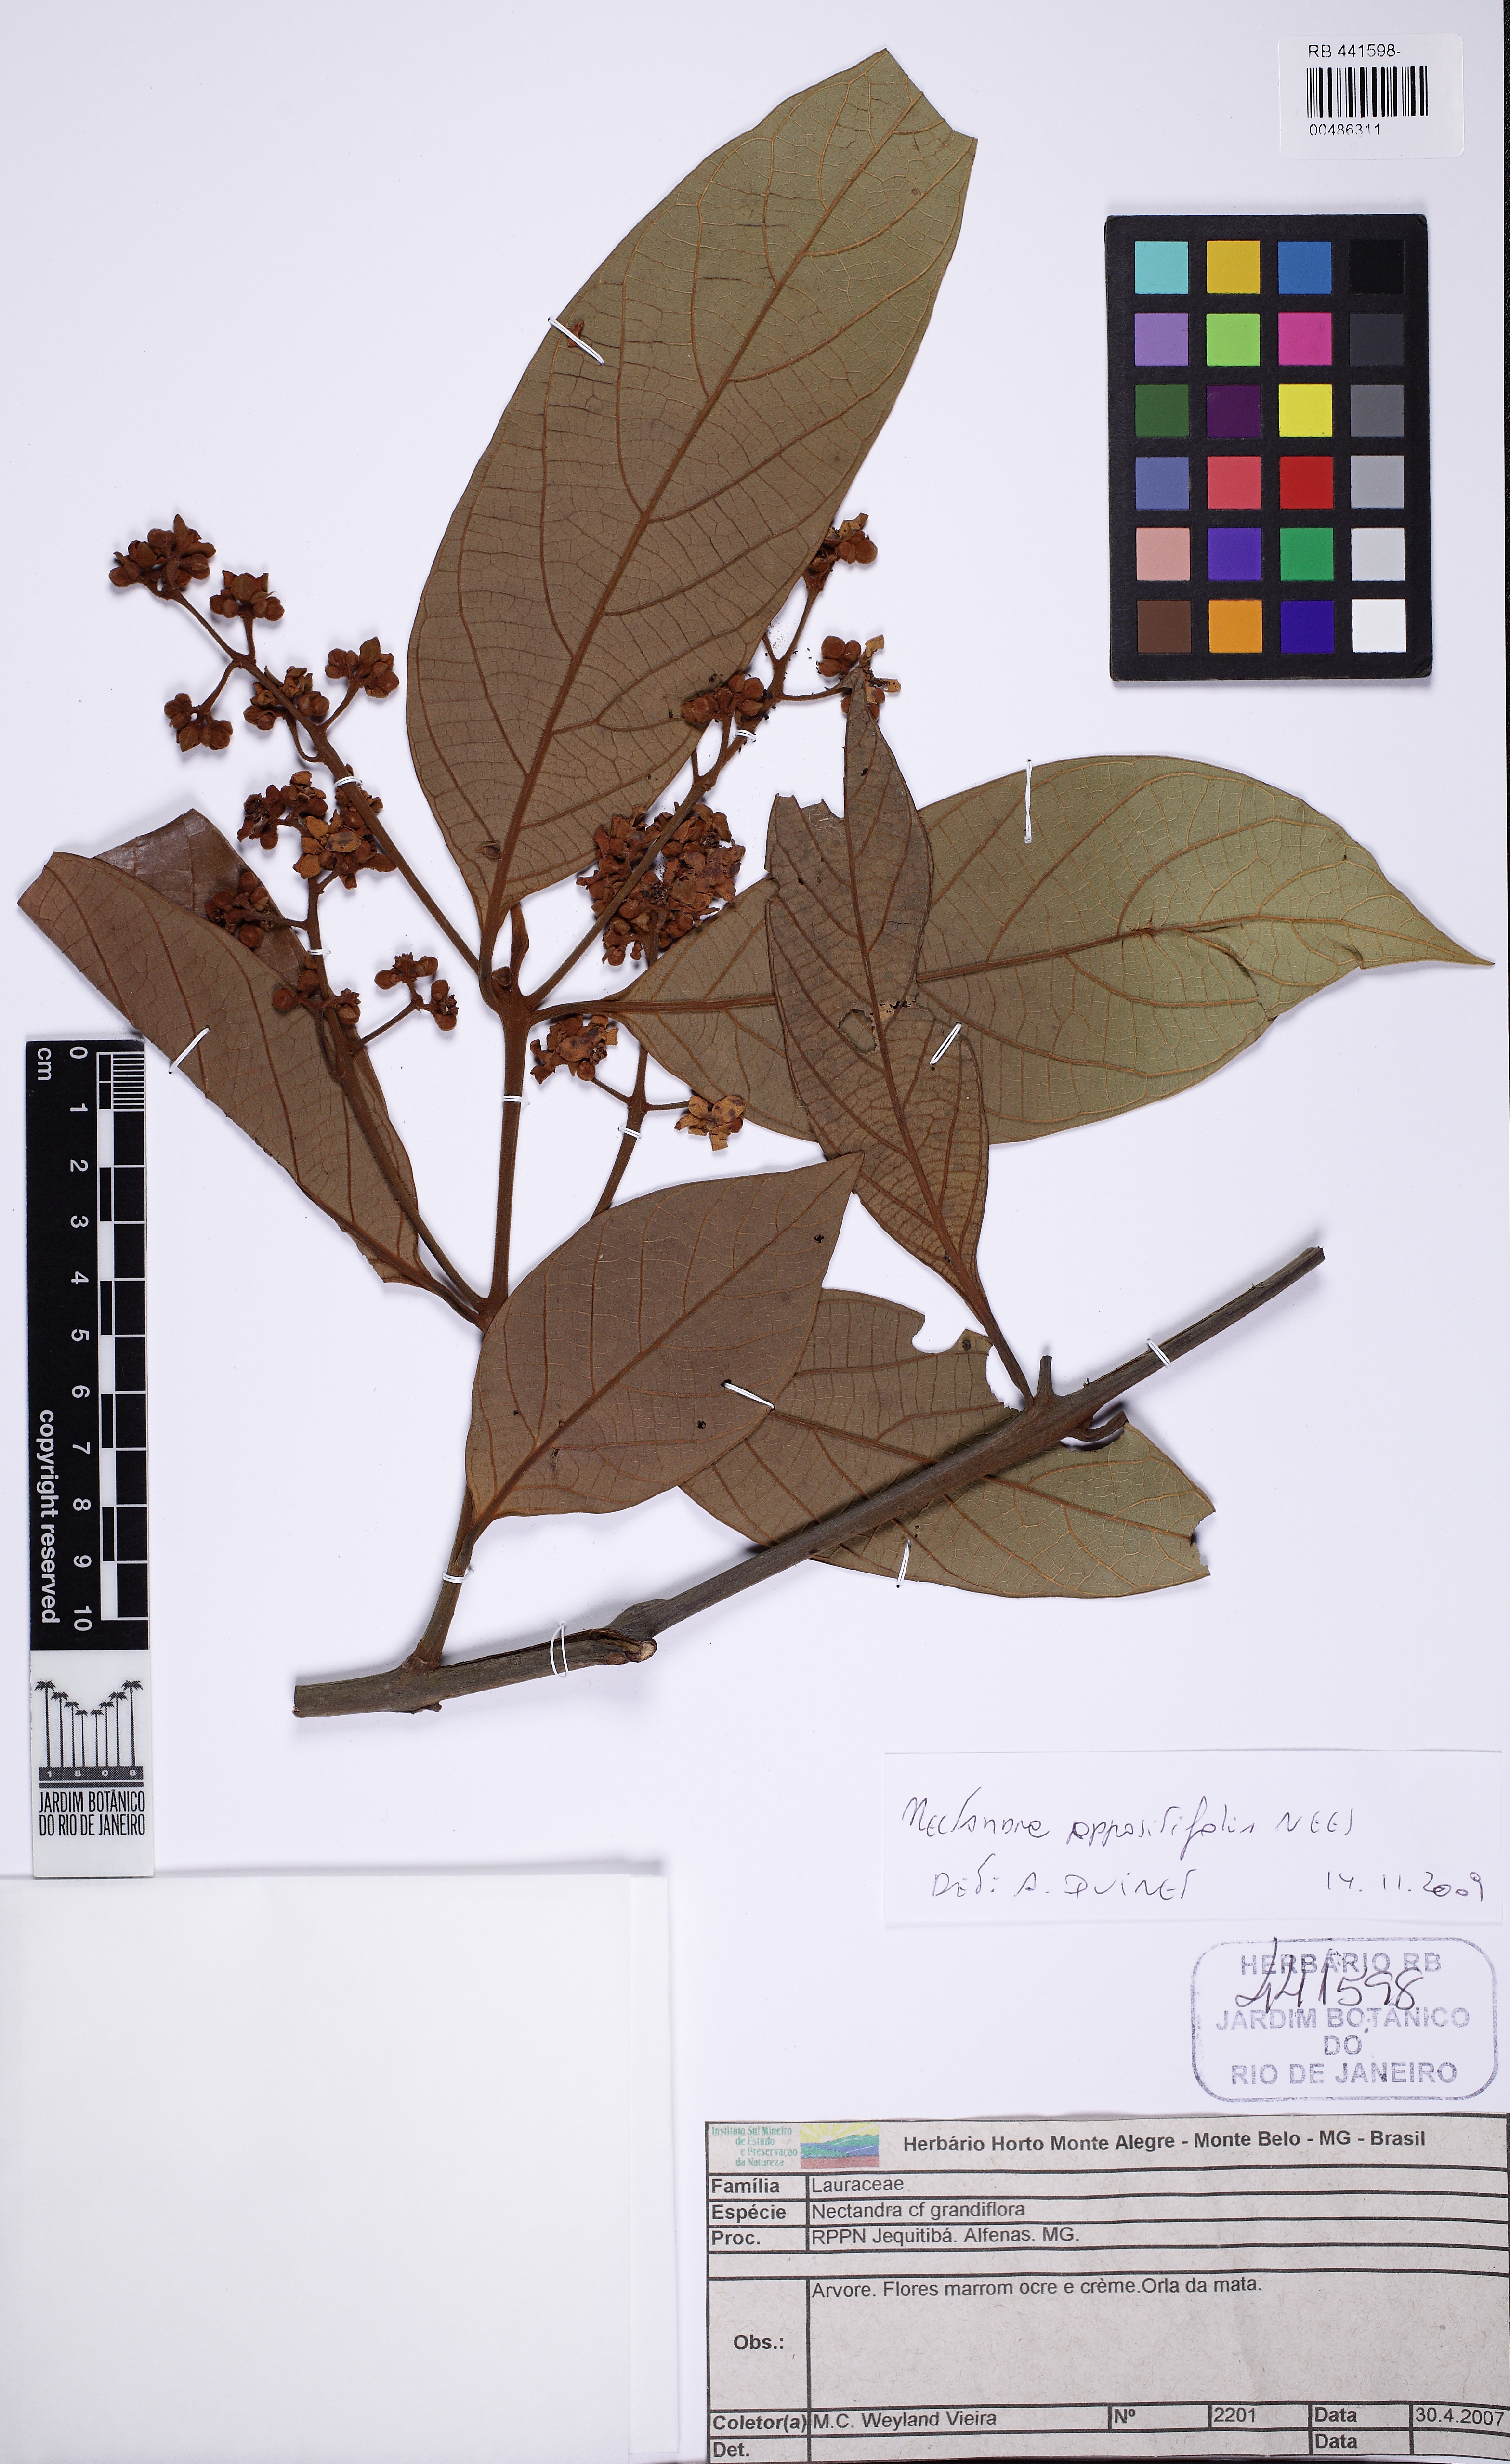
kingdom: Plantae
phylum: Tracheophyta
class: Magnoliopsida
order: Laurales
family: Lauraceae
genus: Nectandra
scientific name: Nectandra oppositifolia
